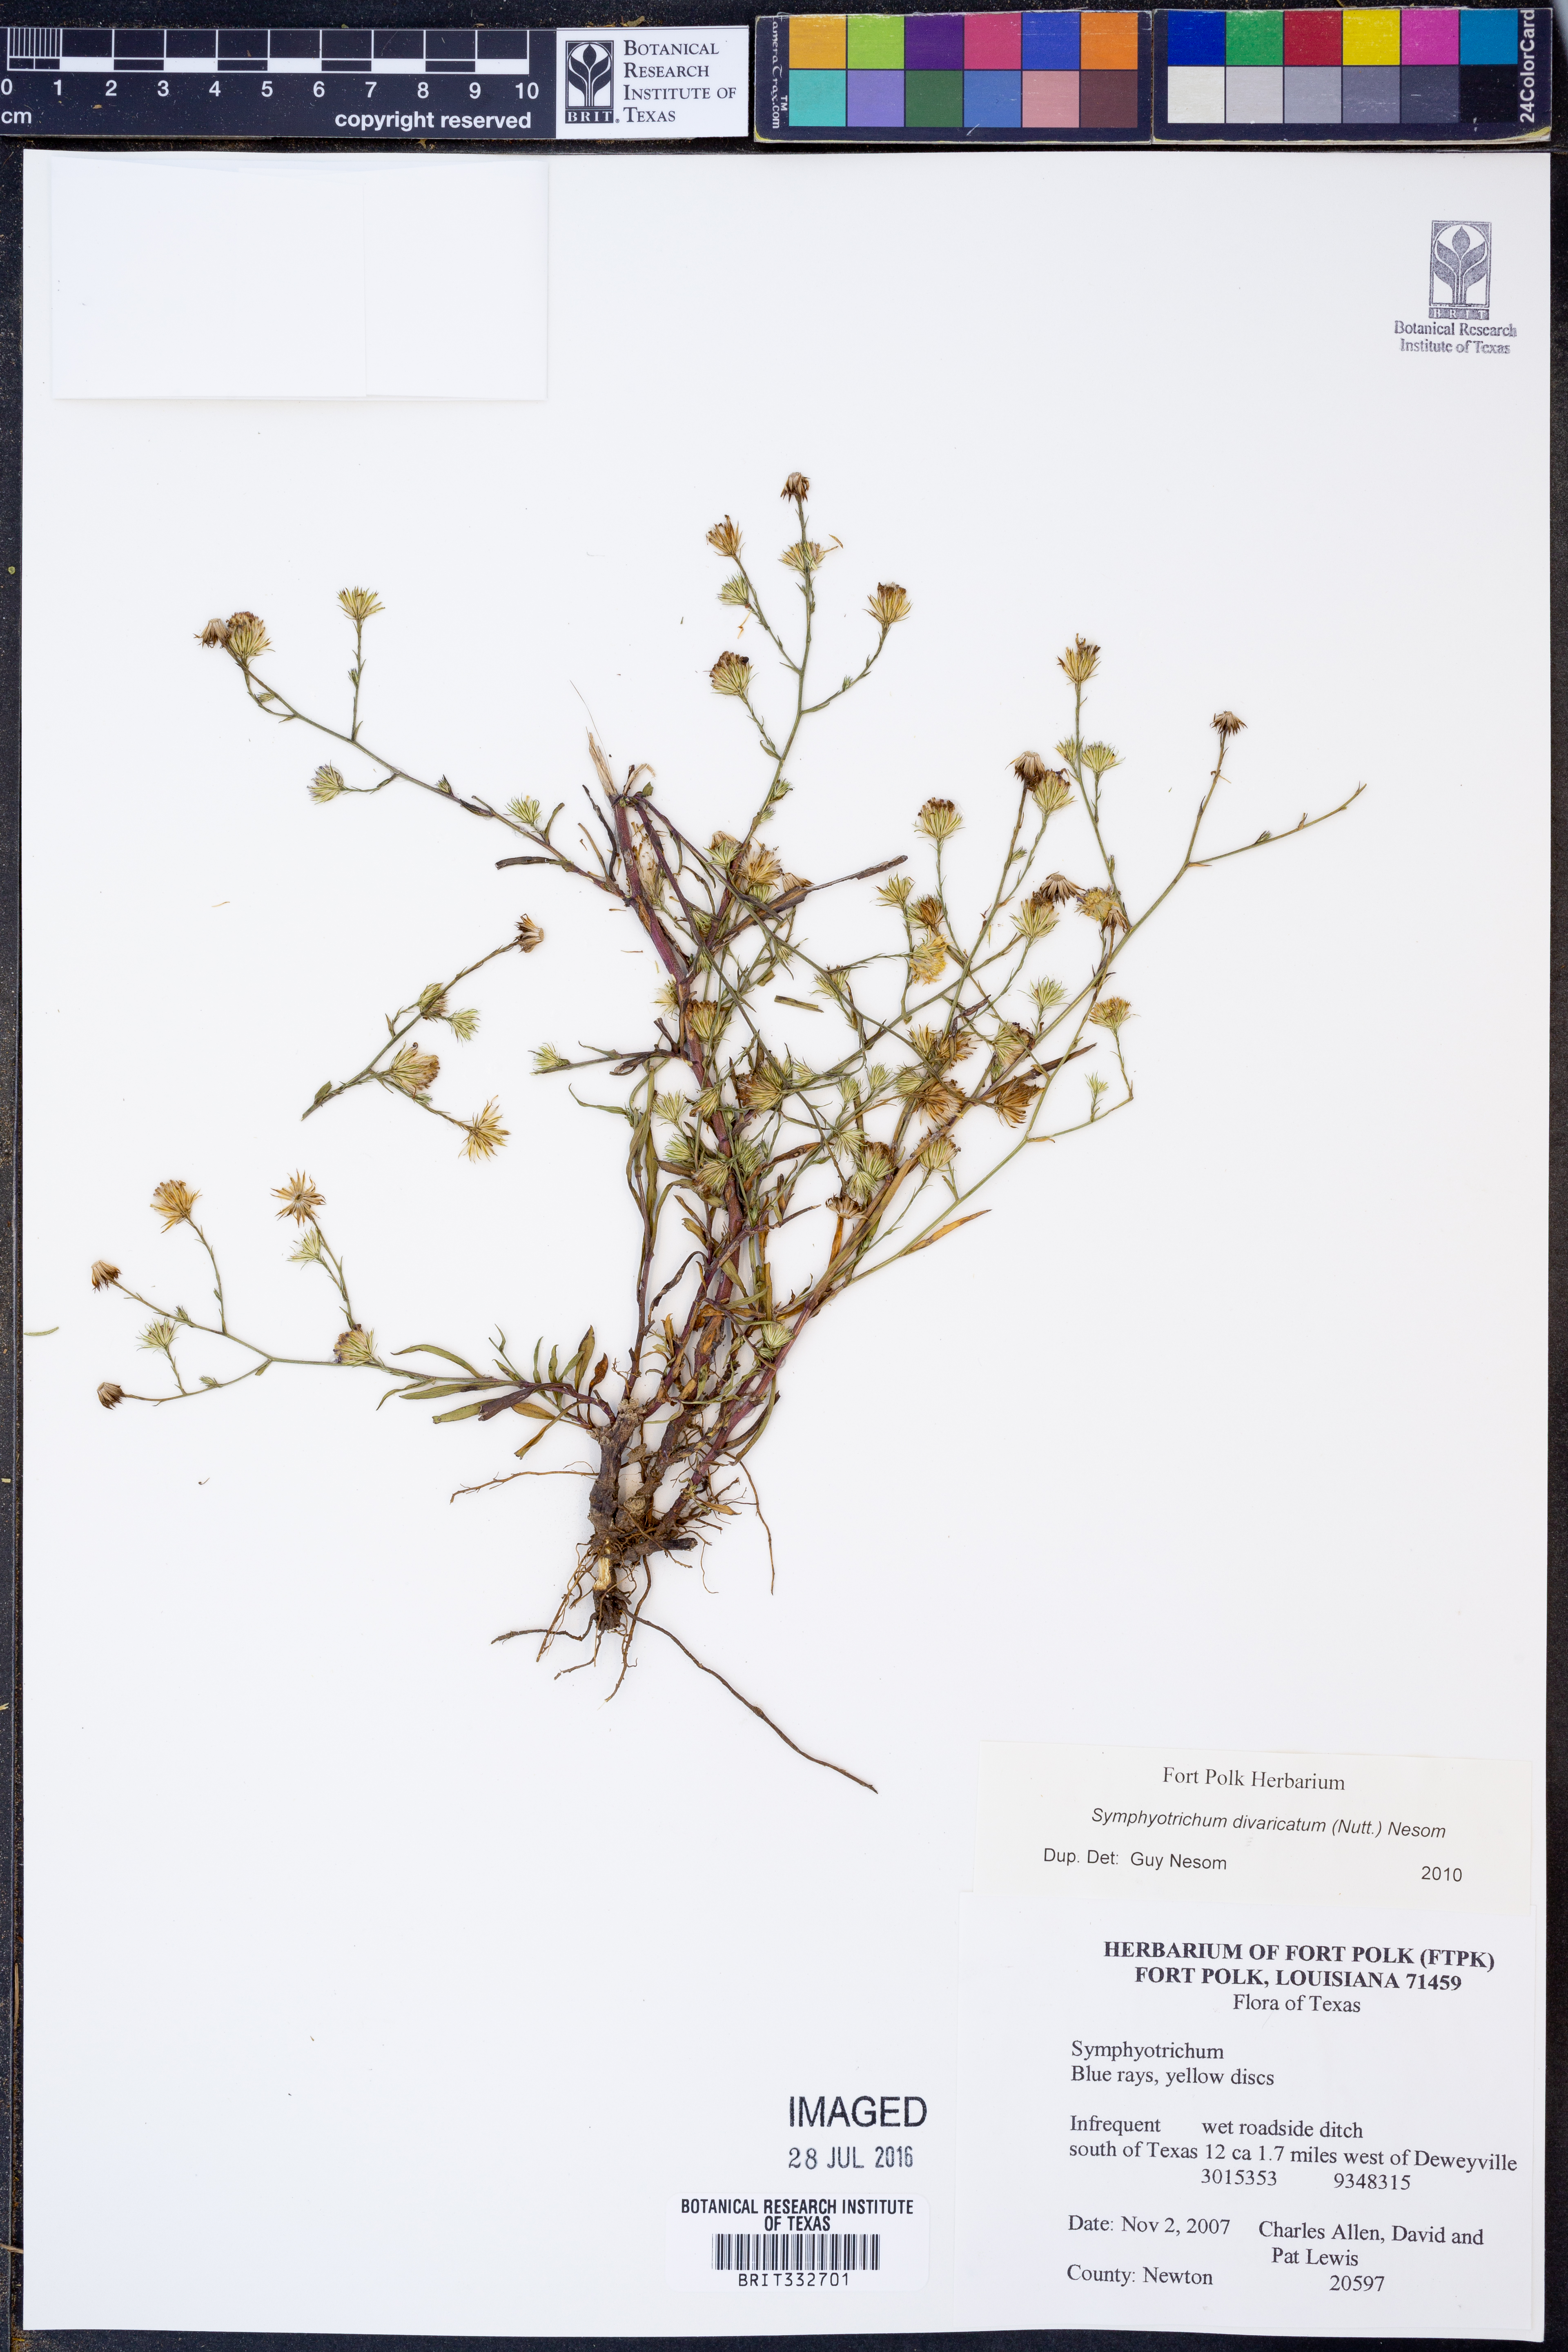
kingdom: Plantae
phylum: Tracheophyta
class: Magnoliopsida
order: Asterales
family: Asteraceae
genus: Symphyotrichum
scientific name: Symphyotrichum divaricatum
